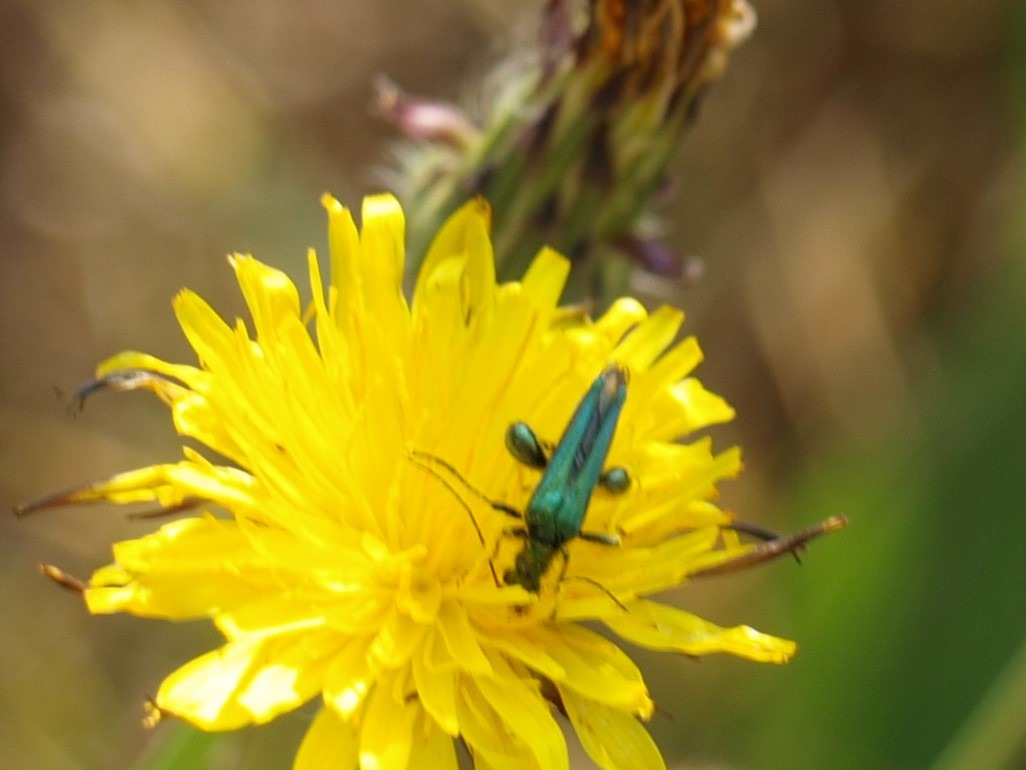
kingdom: Animalia
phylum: Arthropoda
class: Insecta
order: Coleoptera
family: Oedemeridae
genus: Oedemera
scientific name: Oedemera nobilis
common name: Tyklårssolbille
